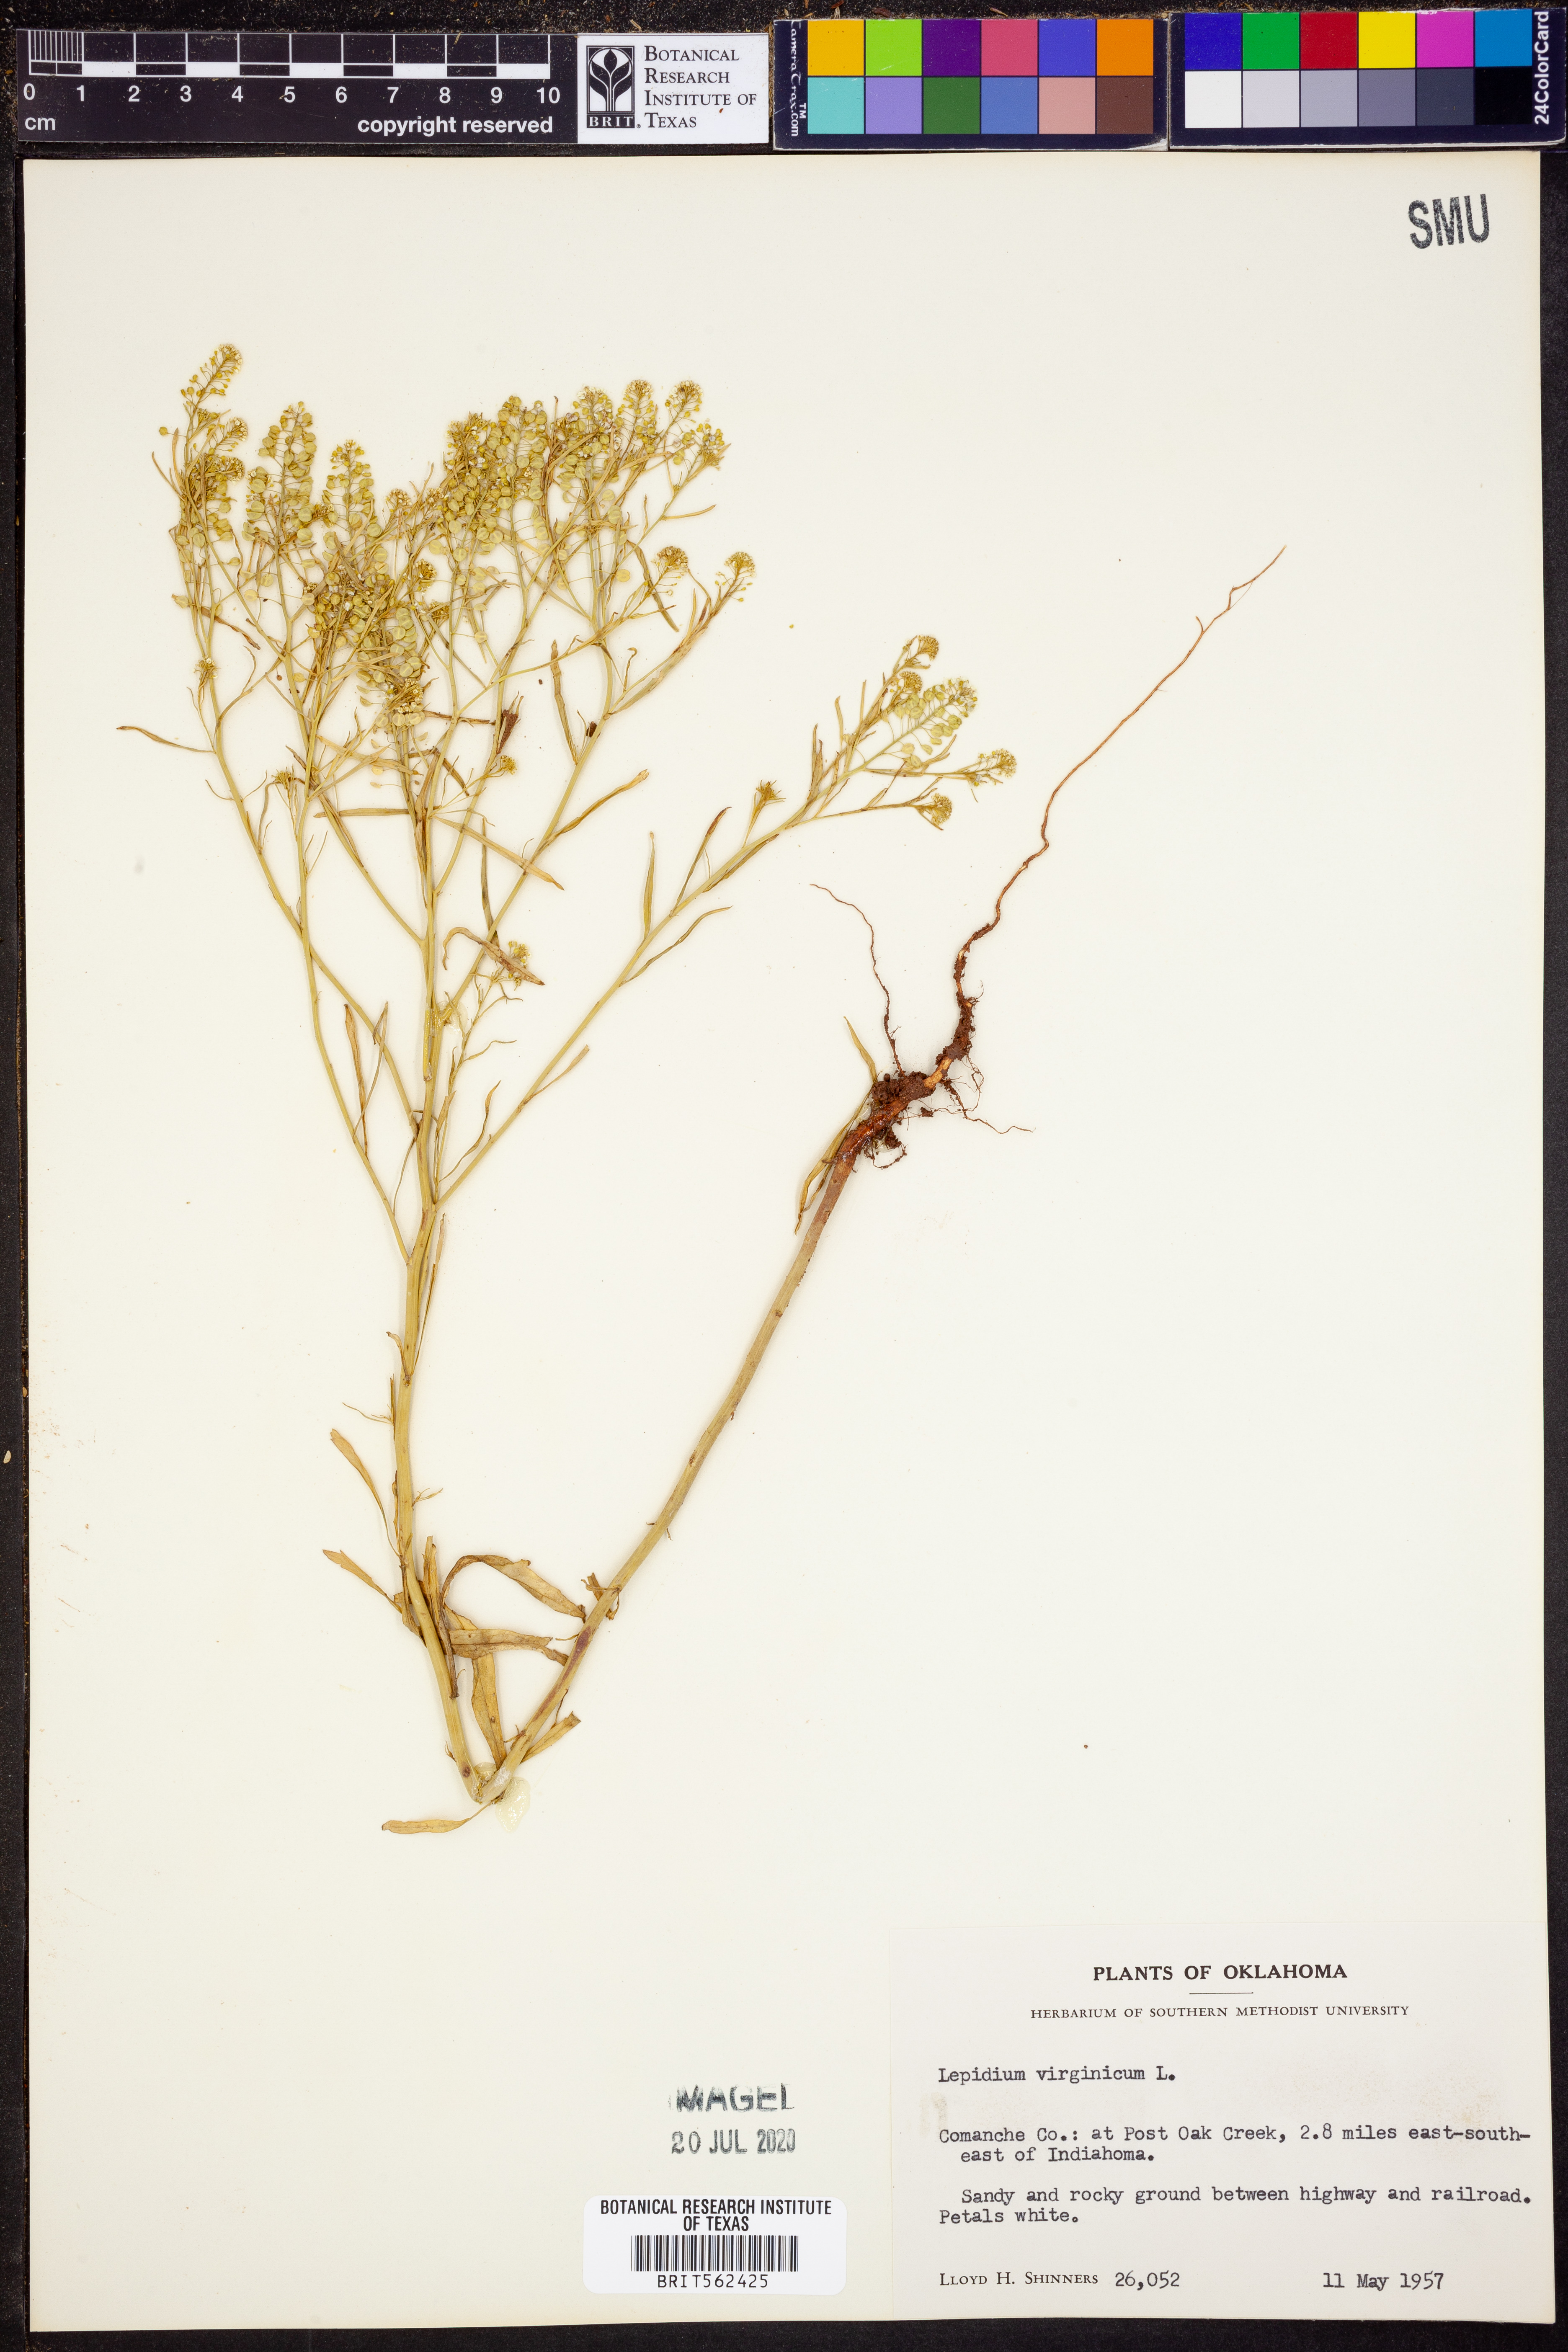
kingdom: Plantae
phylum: Tracheophyta
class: Magnoliopsida
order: Brassicales
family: Brassicaceae
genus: Lepidium
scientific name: Lepidium virginicum
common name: Least pepperwort
